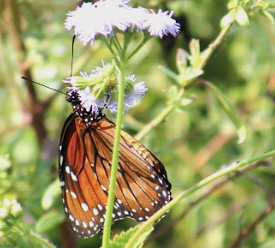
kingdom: Animalia
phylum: Arthropoda
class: Insecta
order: Lepidoptera
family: Nymphalidae
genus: Danaus
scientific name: Danaus eresimus
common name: Soldier
